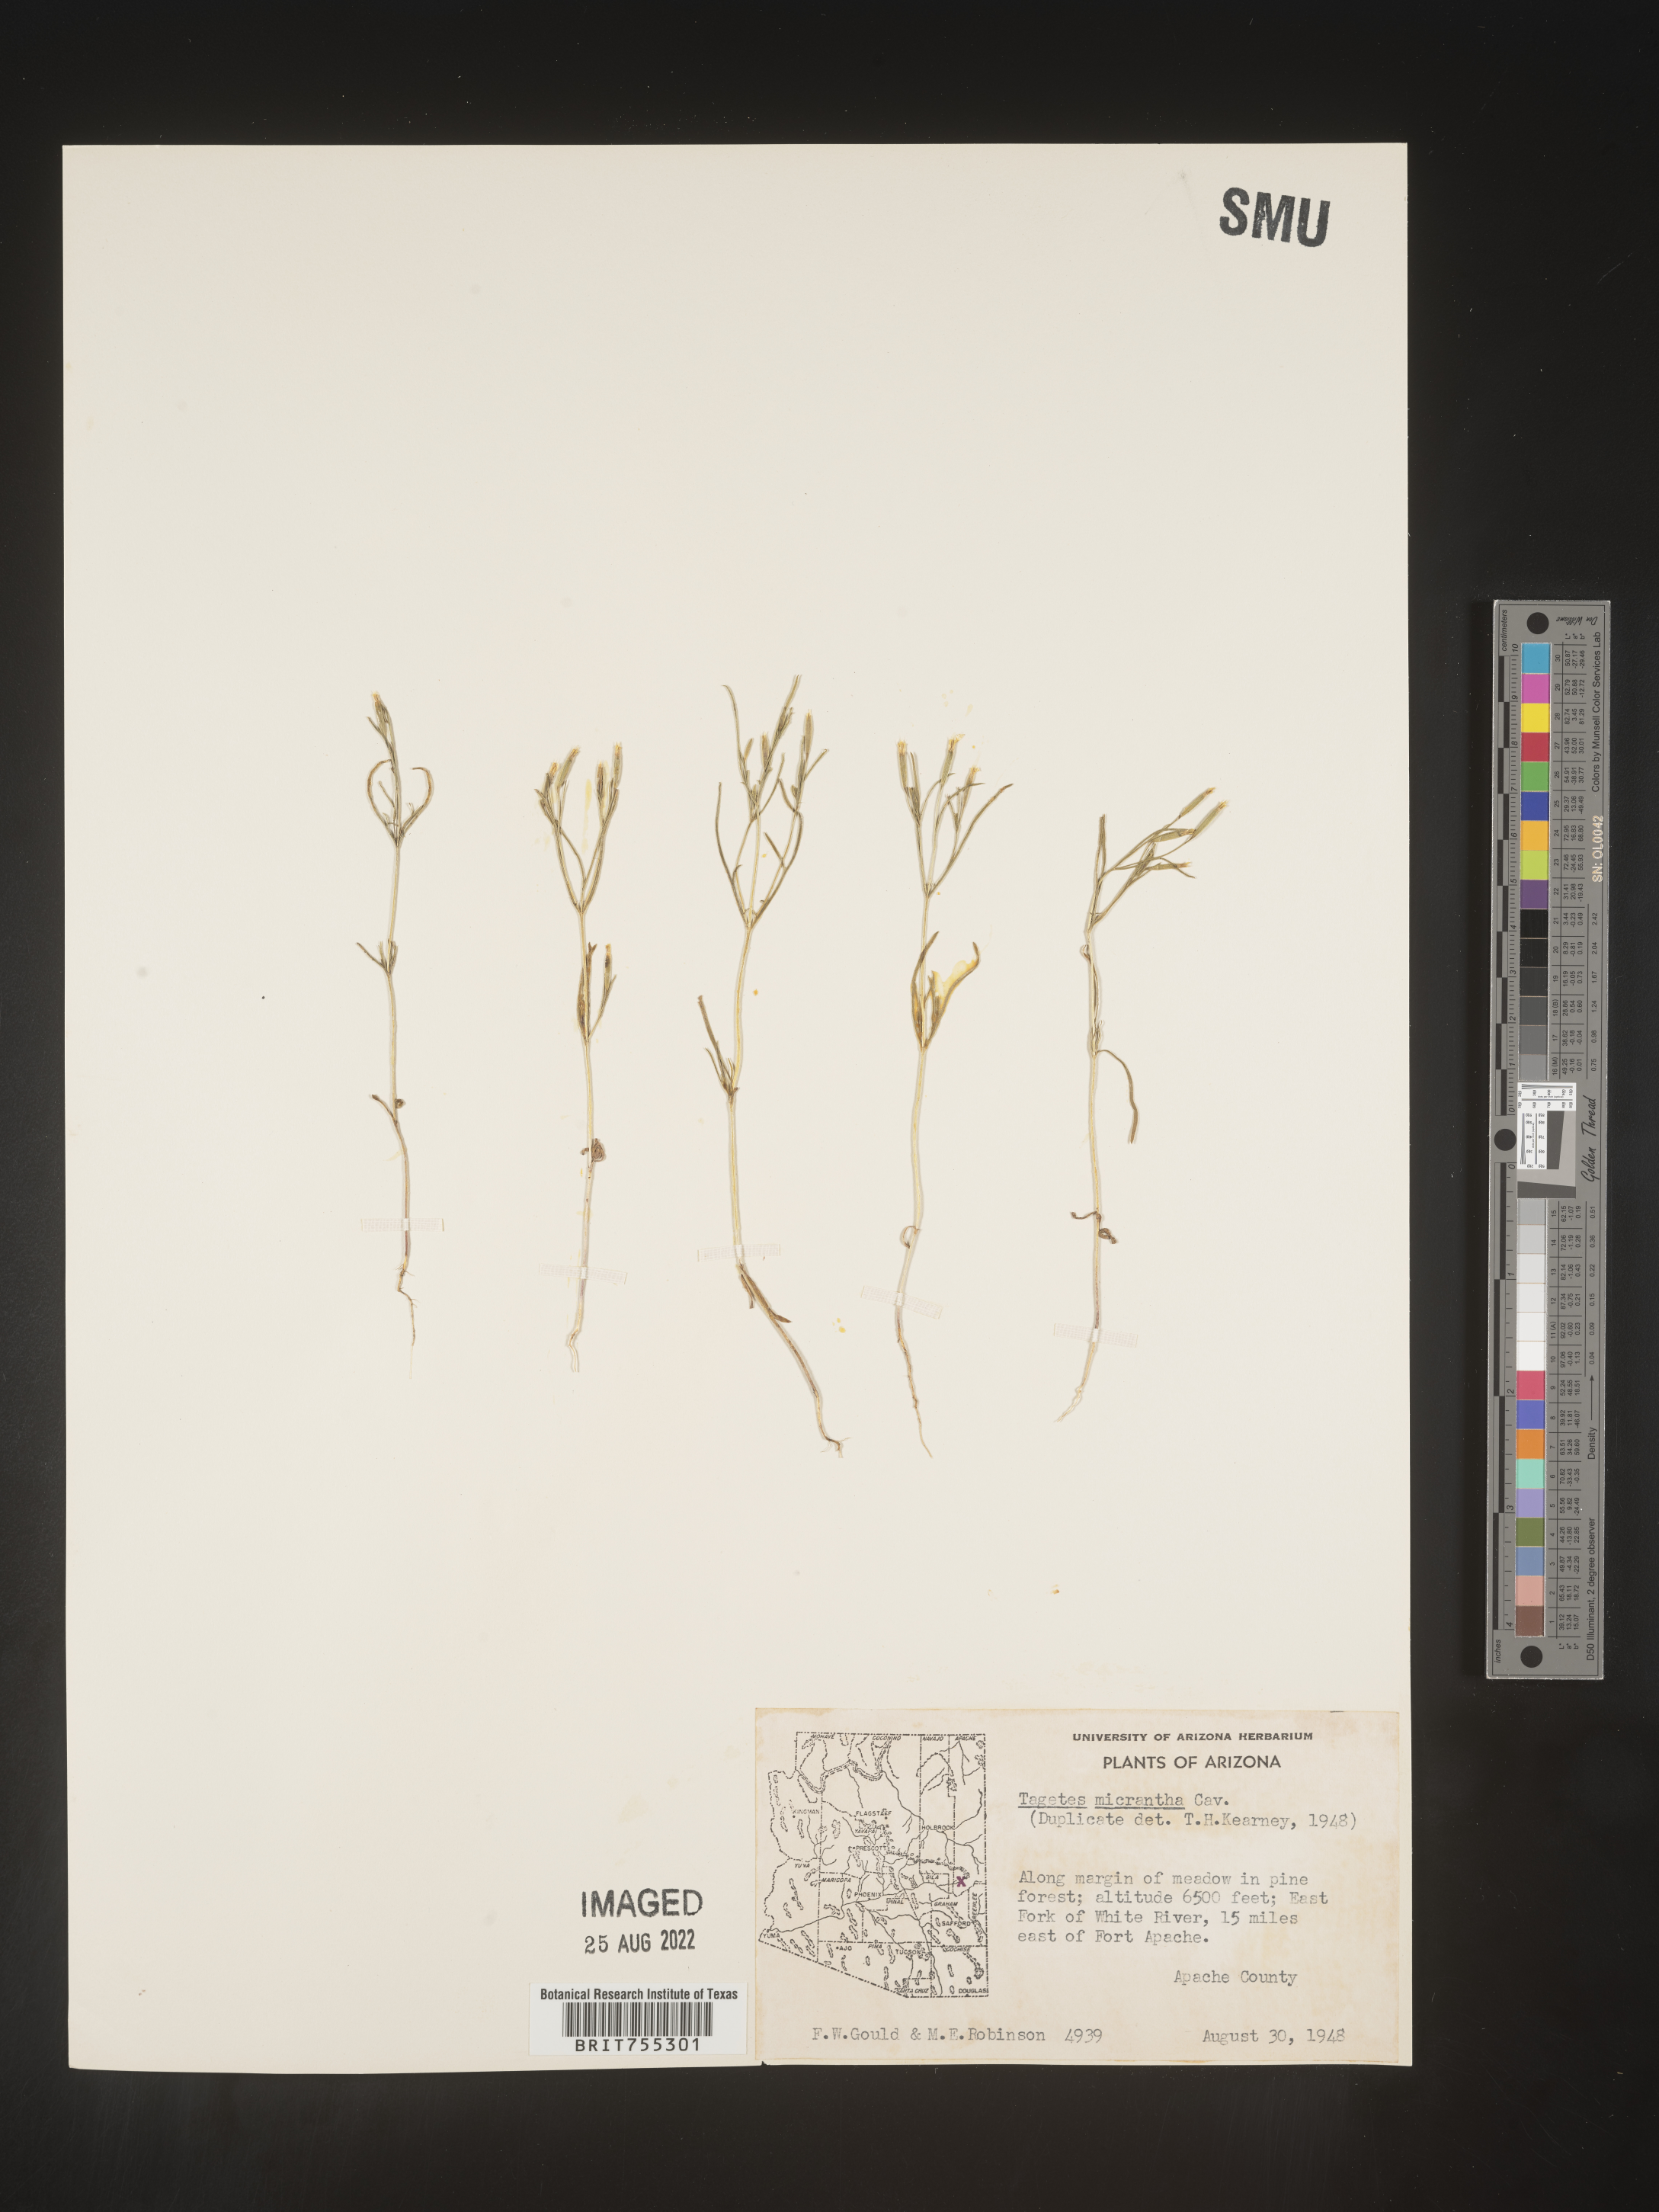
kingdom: Plantae
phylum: Tracheophyta
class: Magnoliopsida
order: Asterales
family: Asteraceae
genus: Tagetes
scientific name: Tagetes
